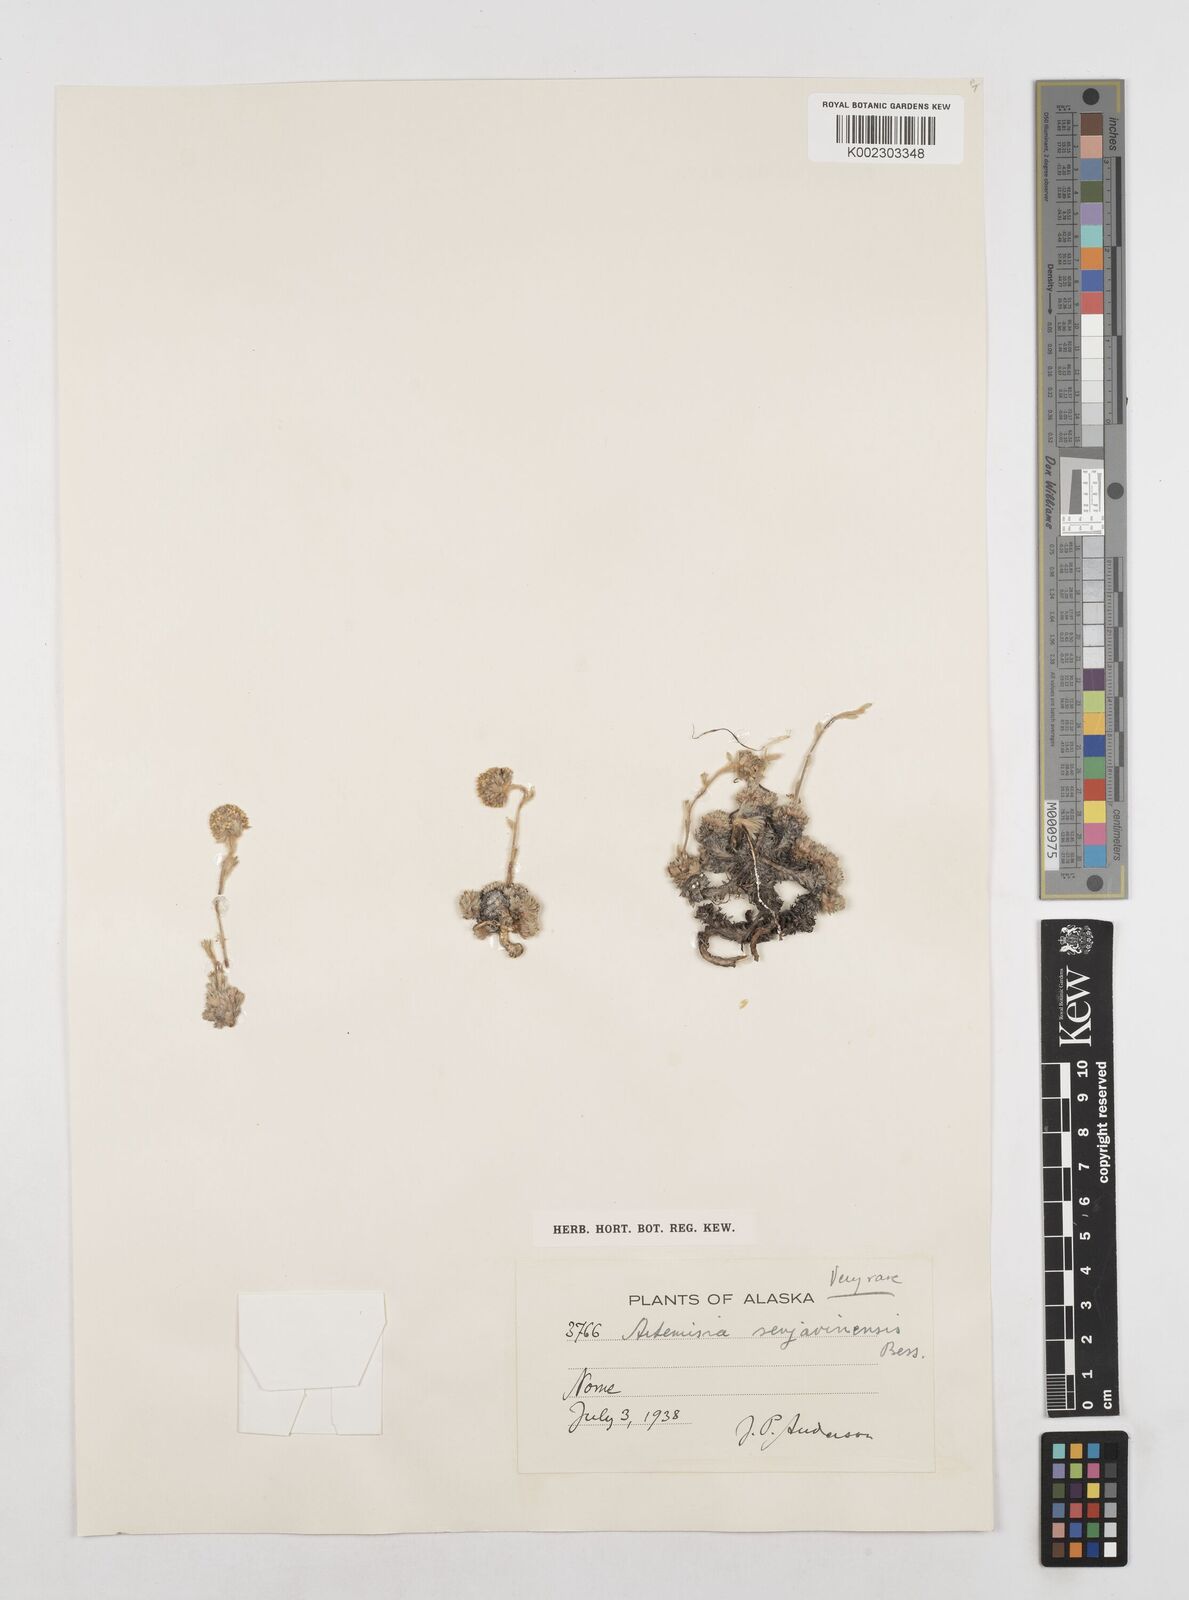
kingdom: Plantae
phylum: Tracheophyta
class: Magnoliopsida
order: Asterales
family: Asteraceae
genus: Artemisia
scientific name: Artemisia senjavinensis
